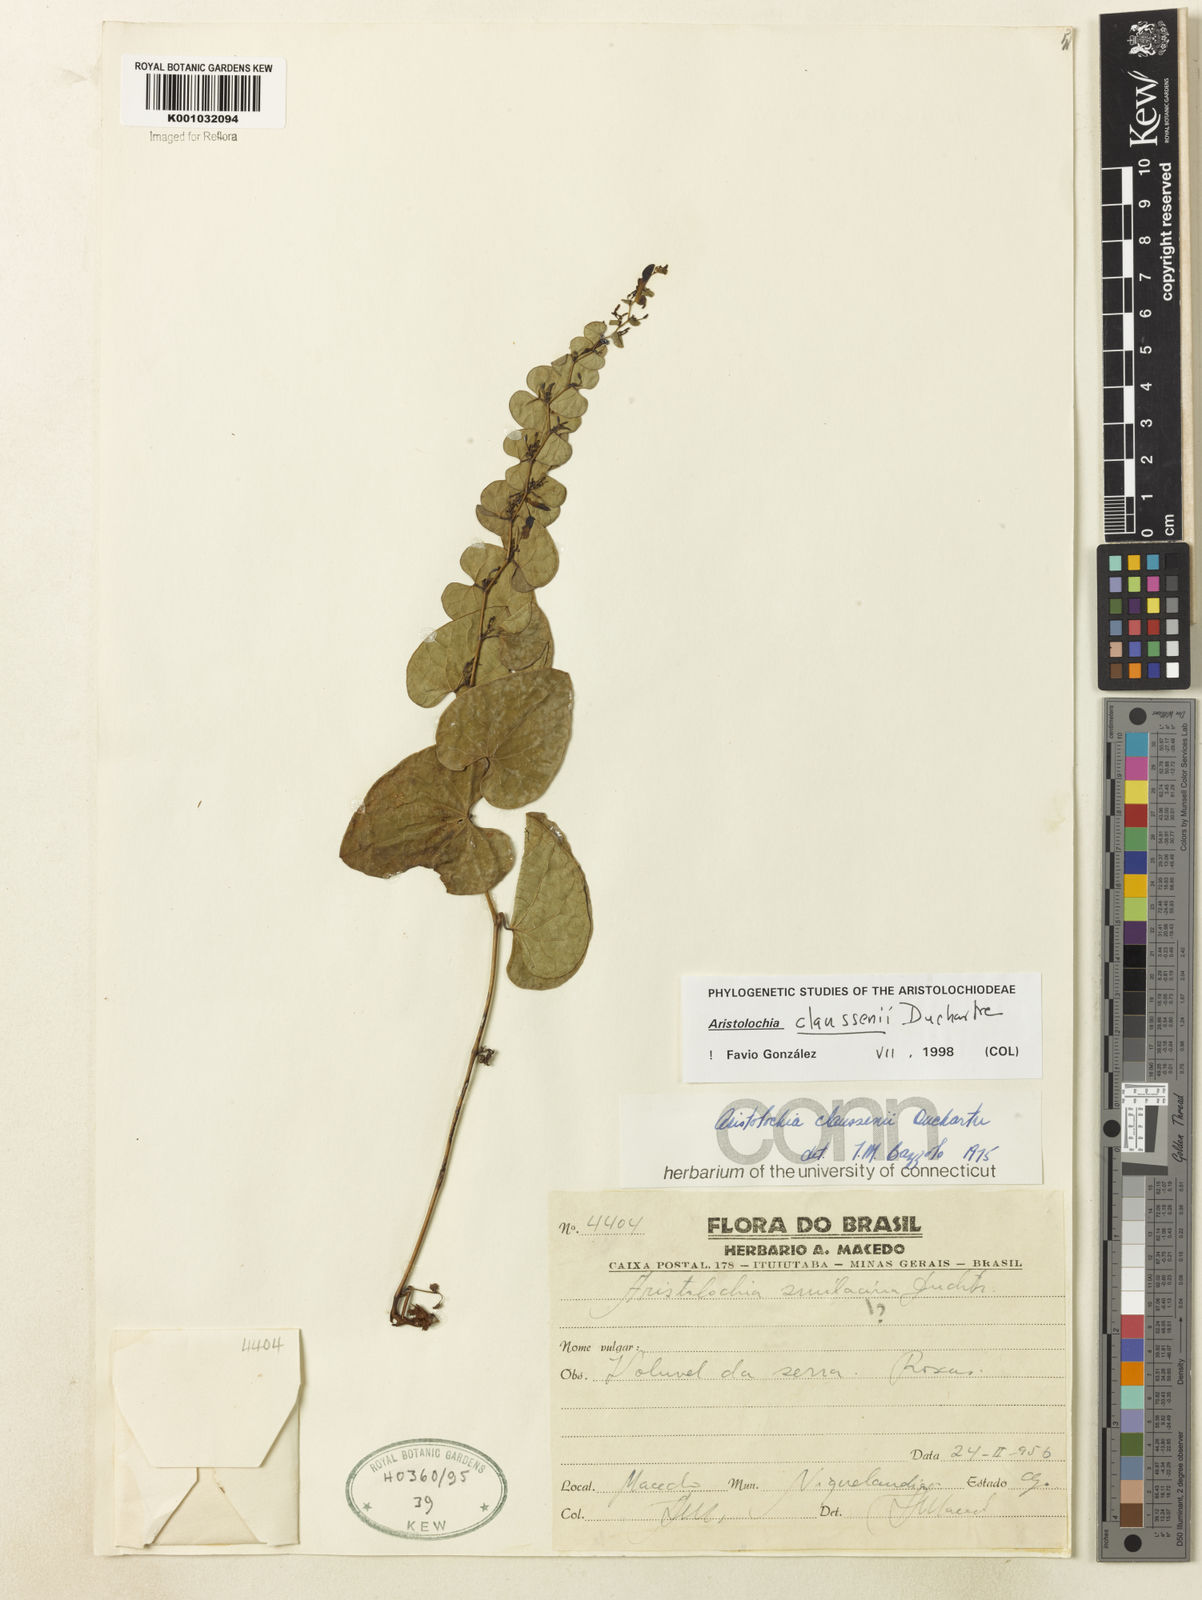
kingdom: Plantae
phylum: Tracheophyta
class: Magnoliopsida
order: Piperales
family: Aristolochiaceae
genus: Aristolochia
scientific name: Aristolochia nummularifolia
